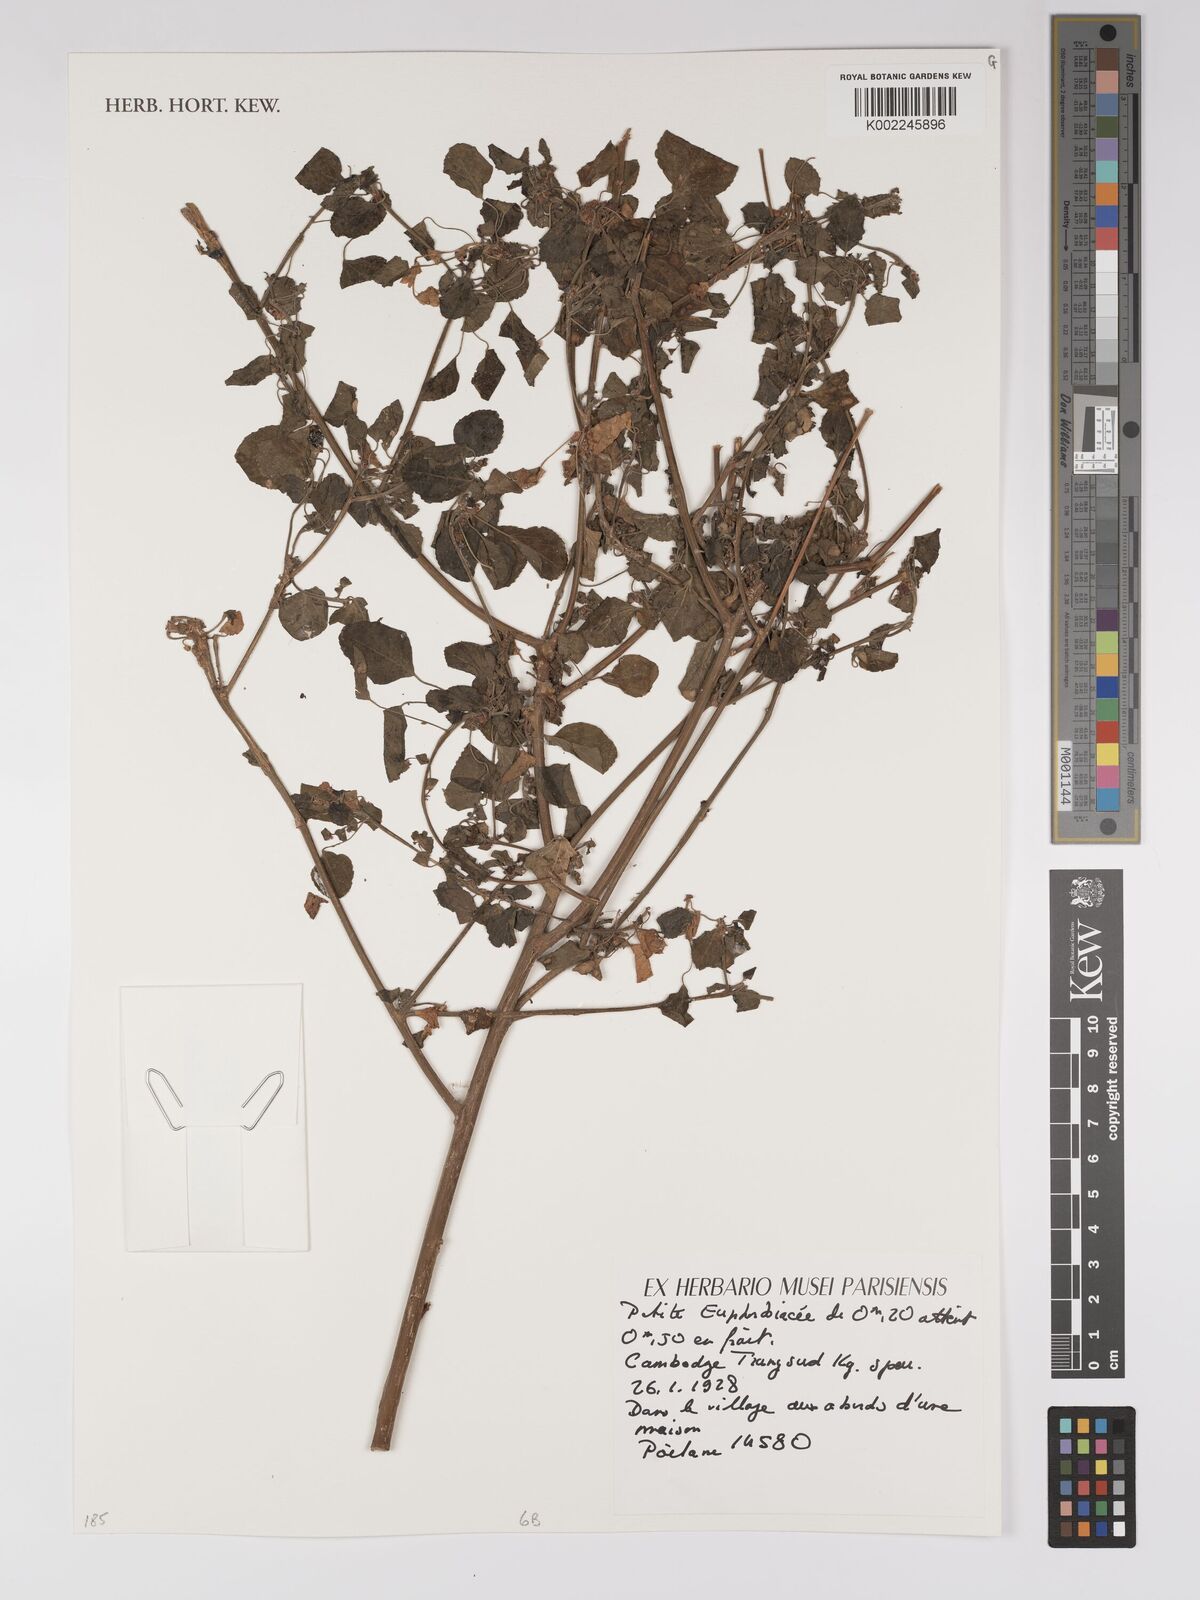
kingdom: Plantae
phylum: Tracheophyta
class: Magnoliopsida
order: Malpighiales
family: Euphorbiaceae
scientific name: Euphorbiaceae
